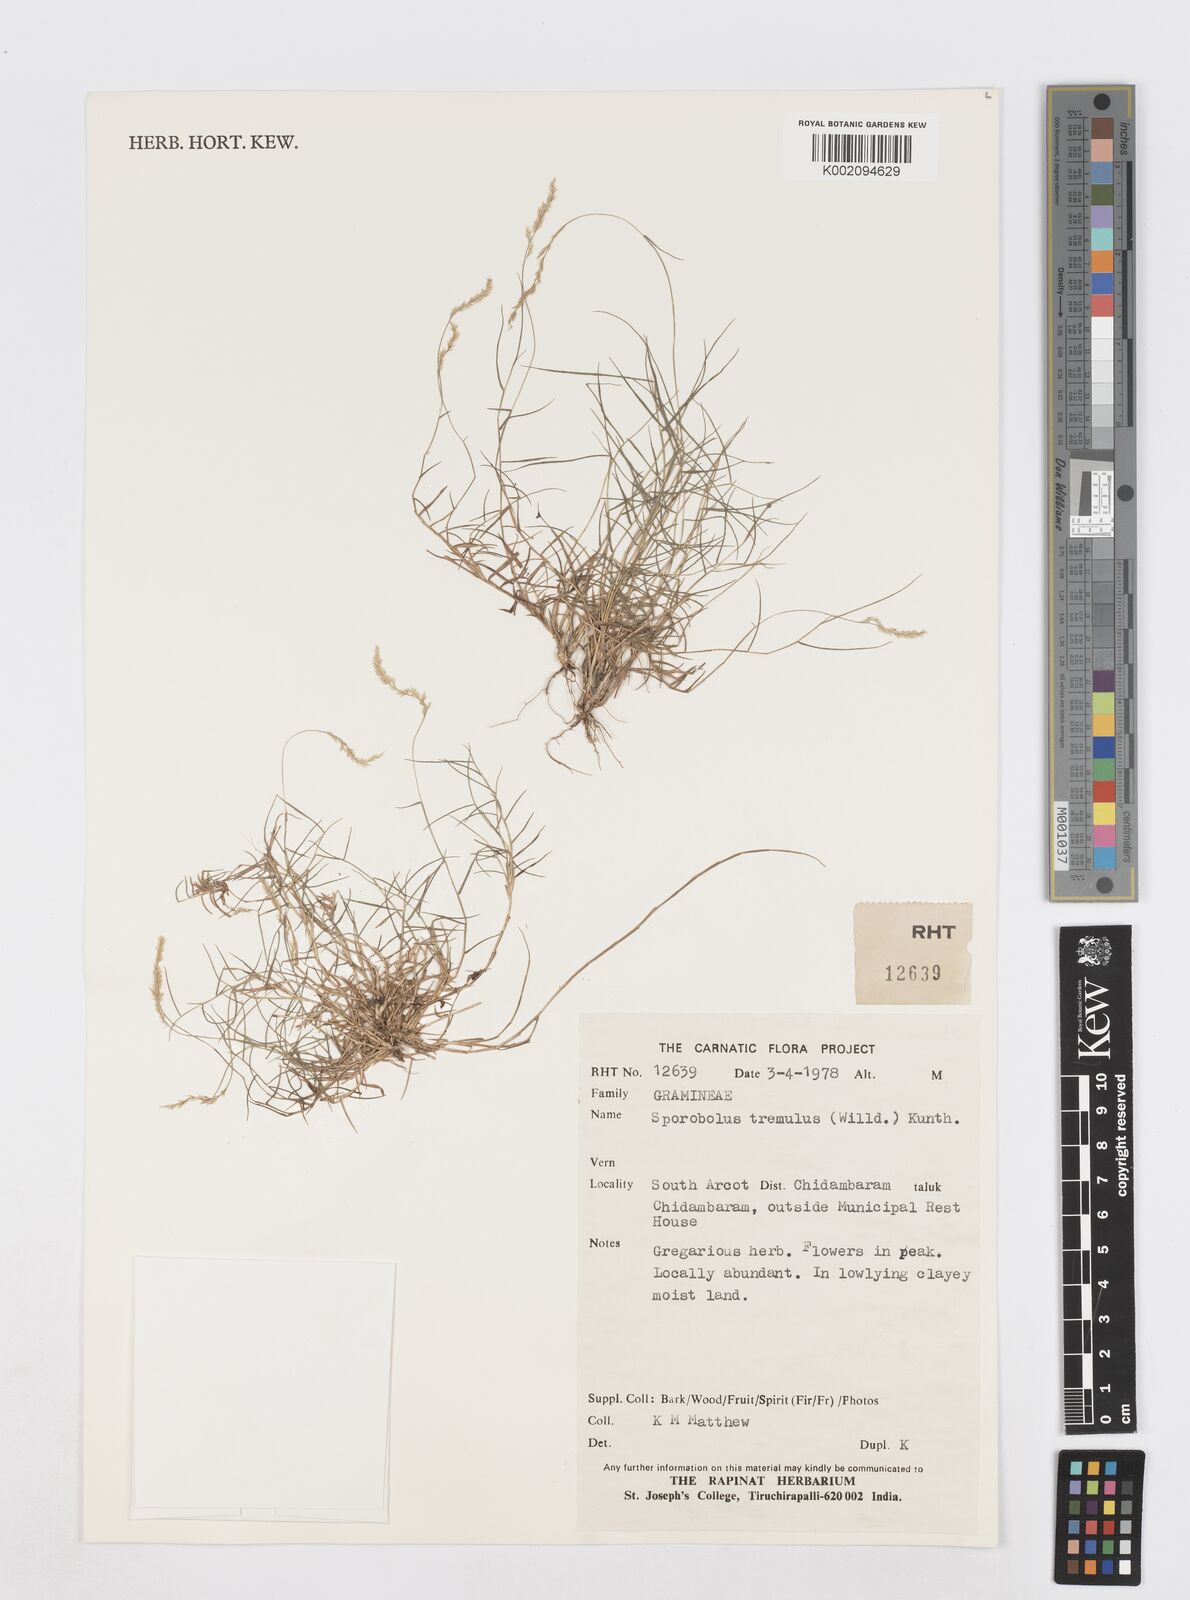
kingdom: Plantae
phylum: Tracheophyta
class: Liliopsida
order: Poales
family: Poaceae
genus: Sporobolus
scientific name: Sporobolus virginicus
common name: Beach dropseed
